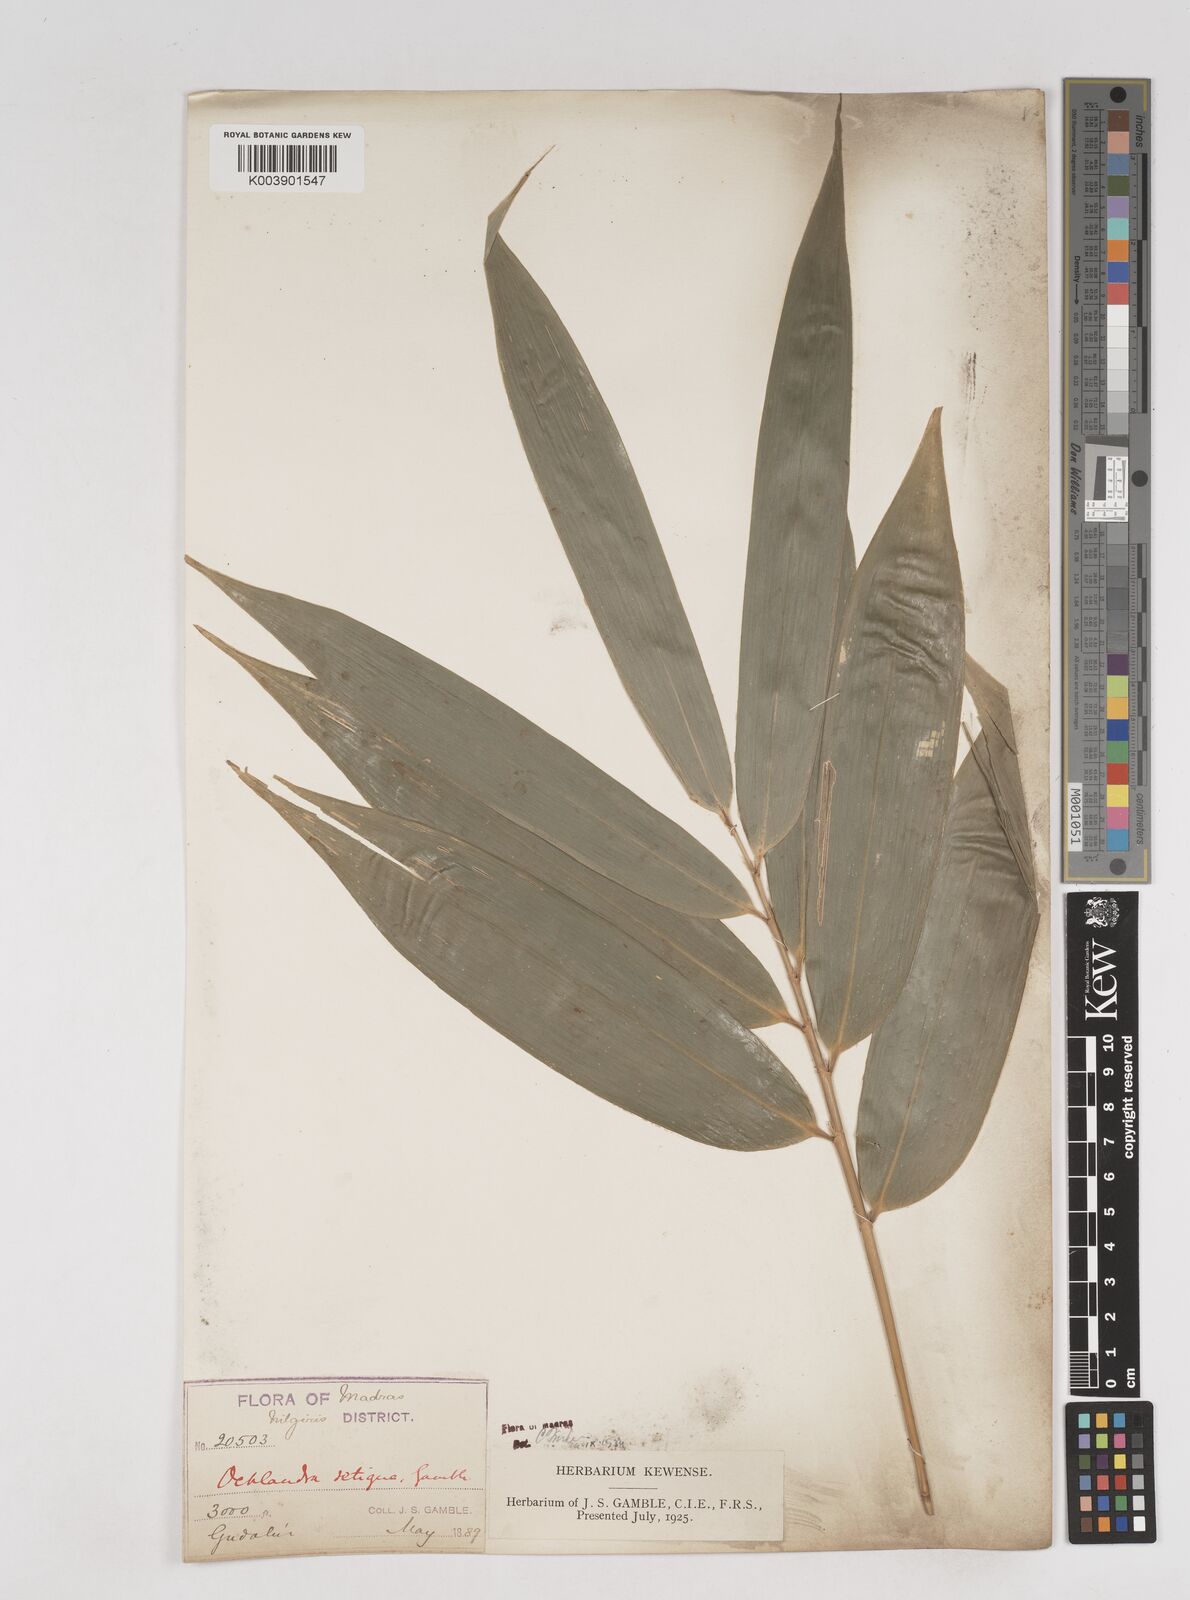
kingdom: Plantae
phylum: Tracheophyta
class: Liliopsida
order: Poales
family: Poaceae
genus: Ochlandra
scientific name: Ochlandra setigera
